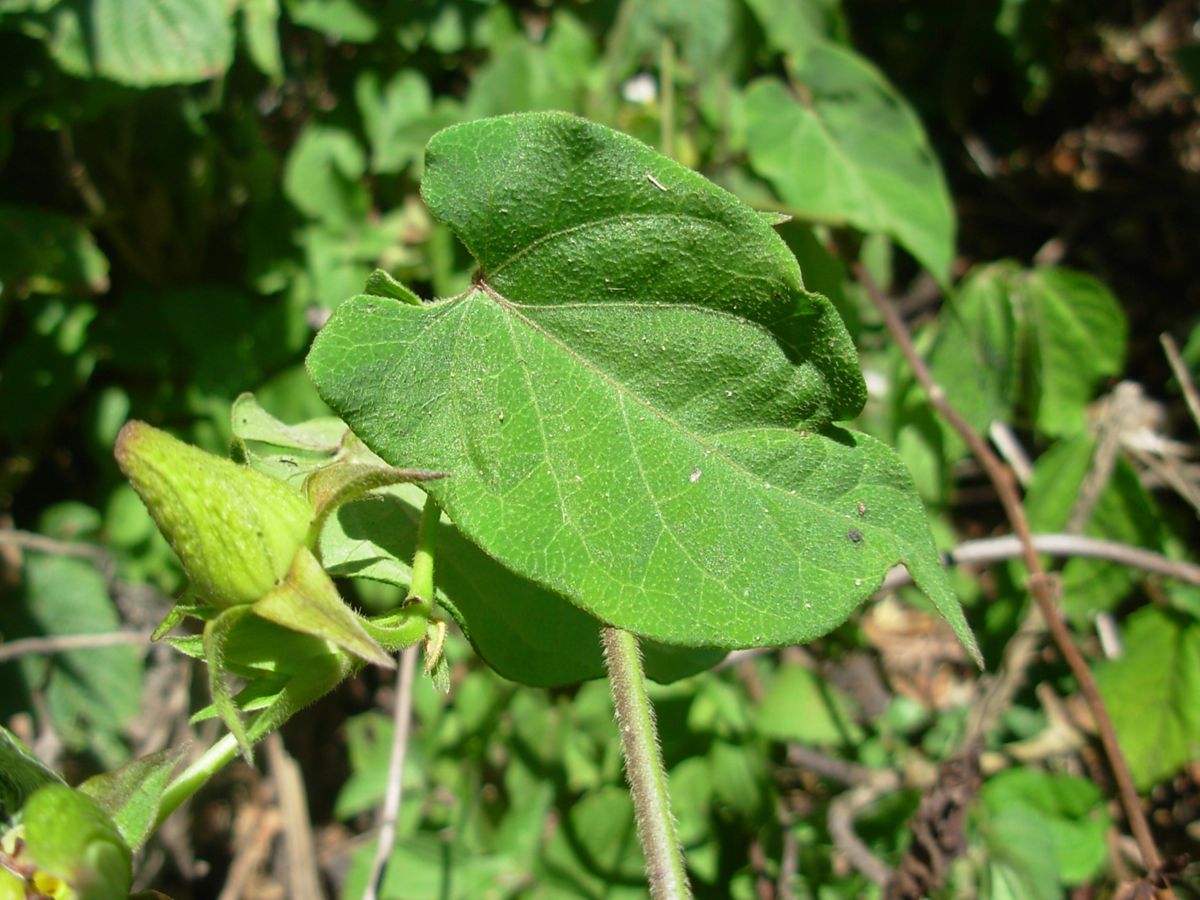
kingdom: Plantae
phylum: Tracheophyta
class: Magnoliopsida
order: Gentianales
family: Apocynaceae
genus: Gonolobus
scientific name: Gonolobus incerianus
